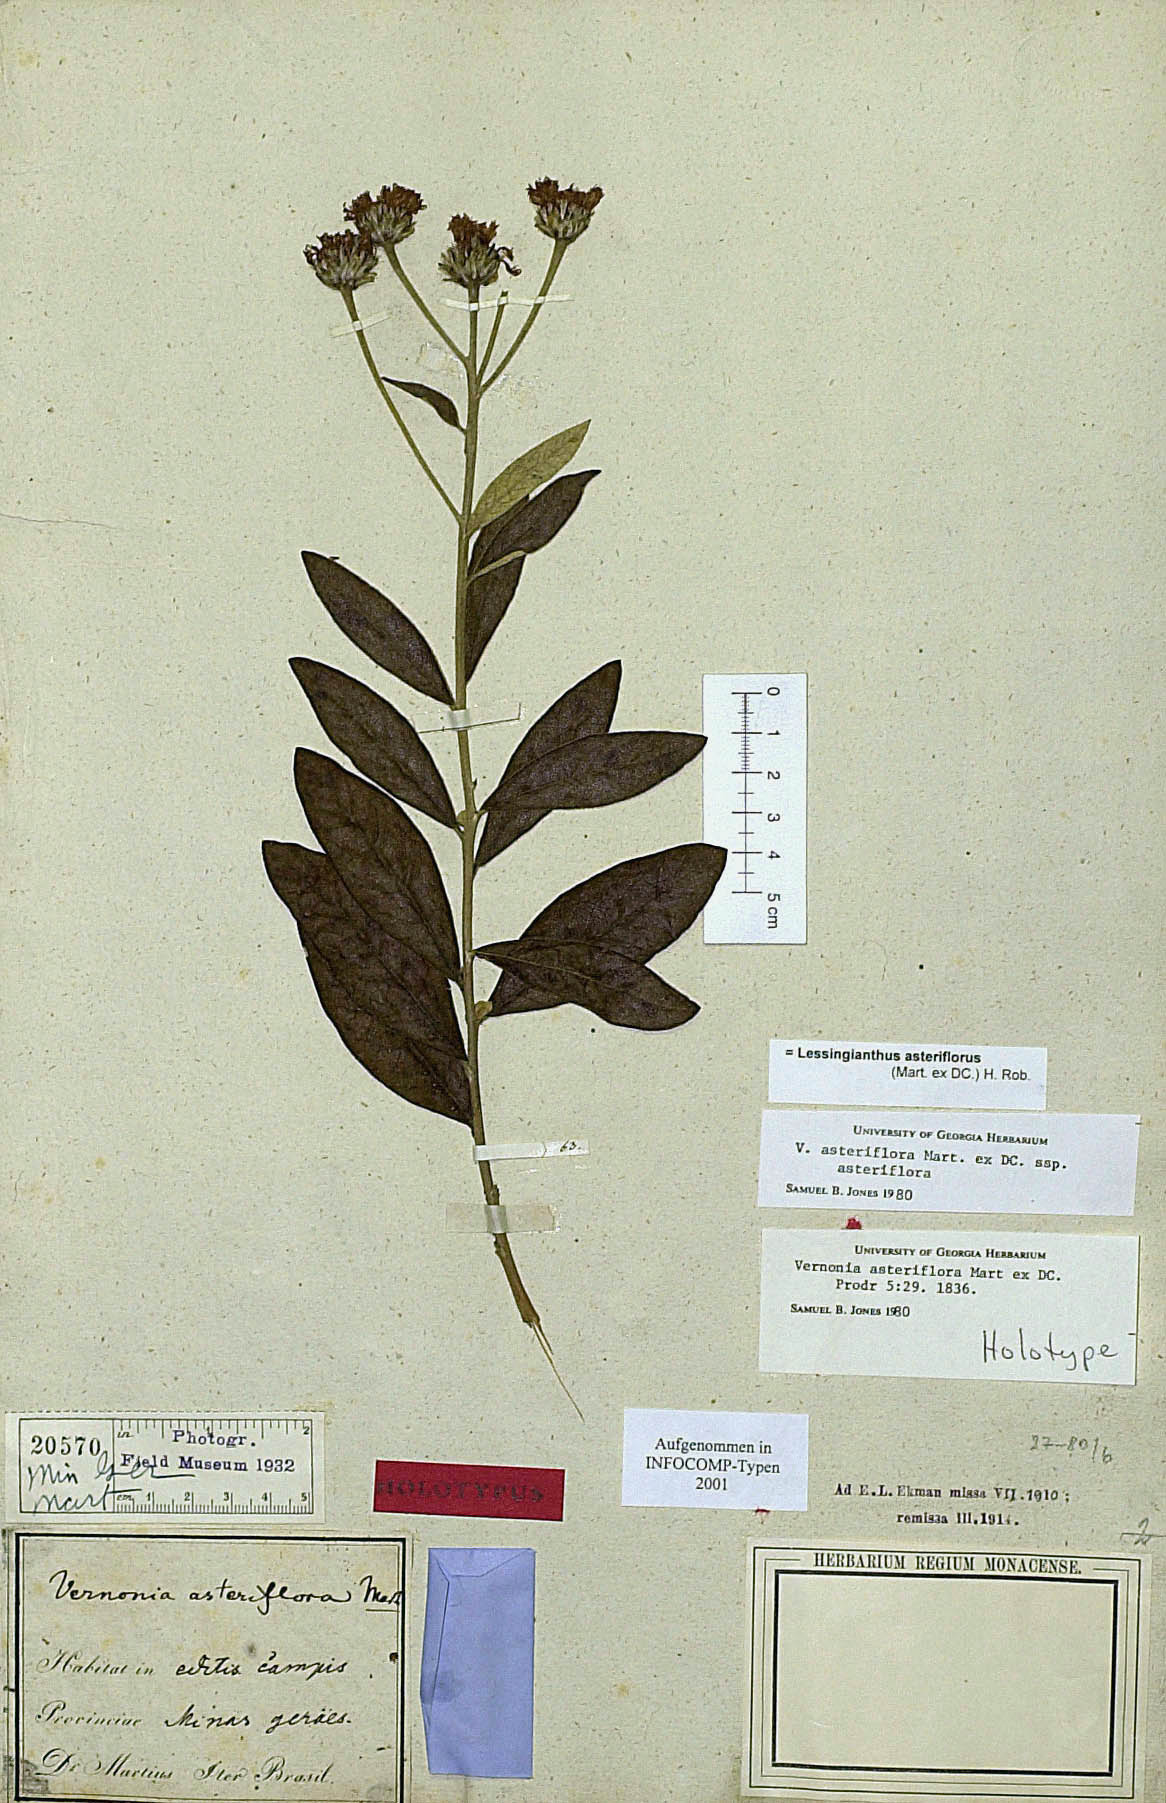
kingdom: Plantae
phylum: Tracheophyta
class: Magnoliopsida
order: Asterales
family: Asteraceae
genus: Lessingianthus
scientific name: Lessingianthus asteriflorus
